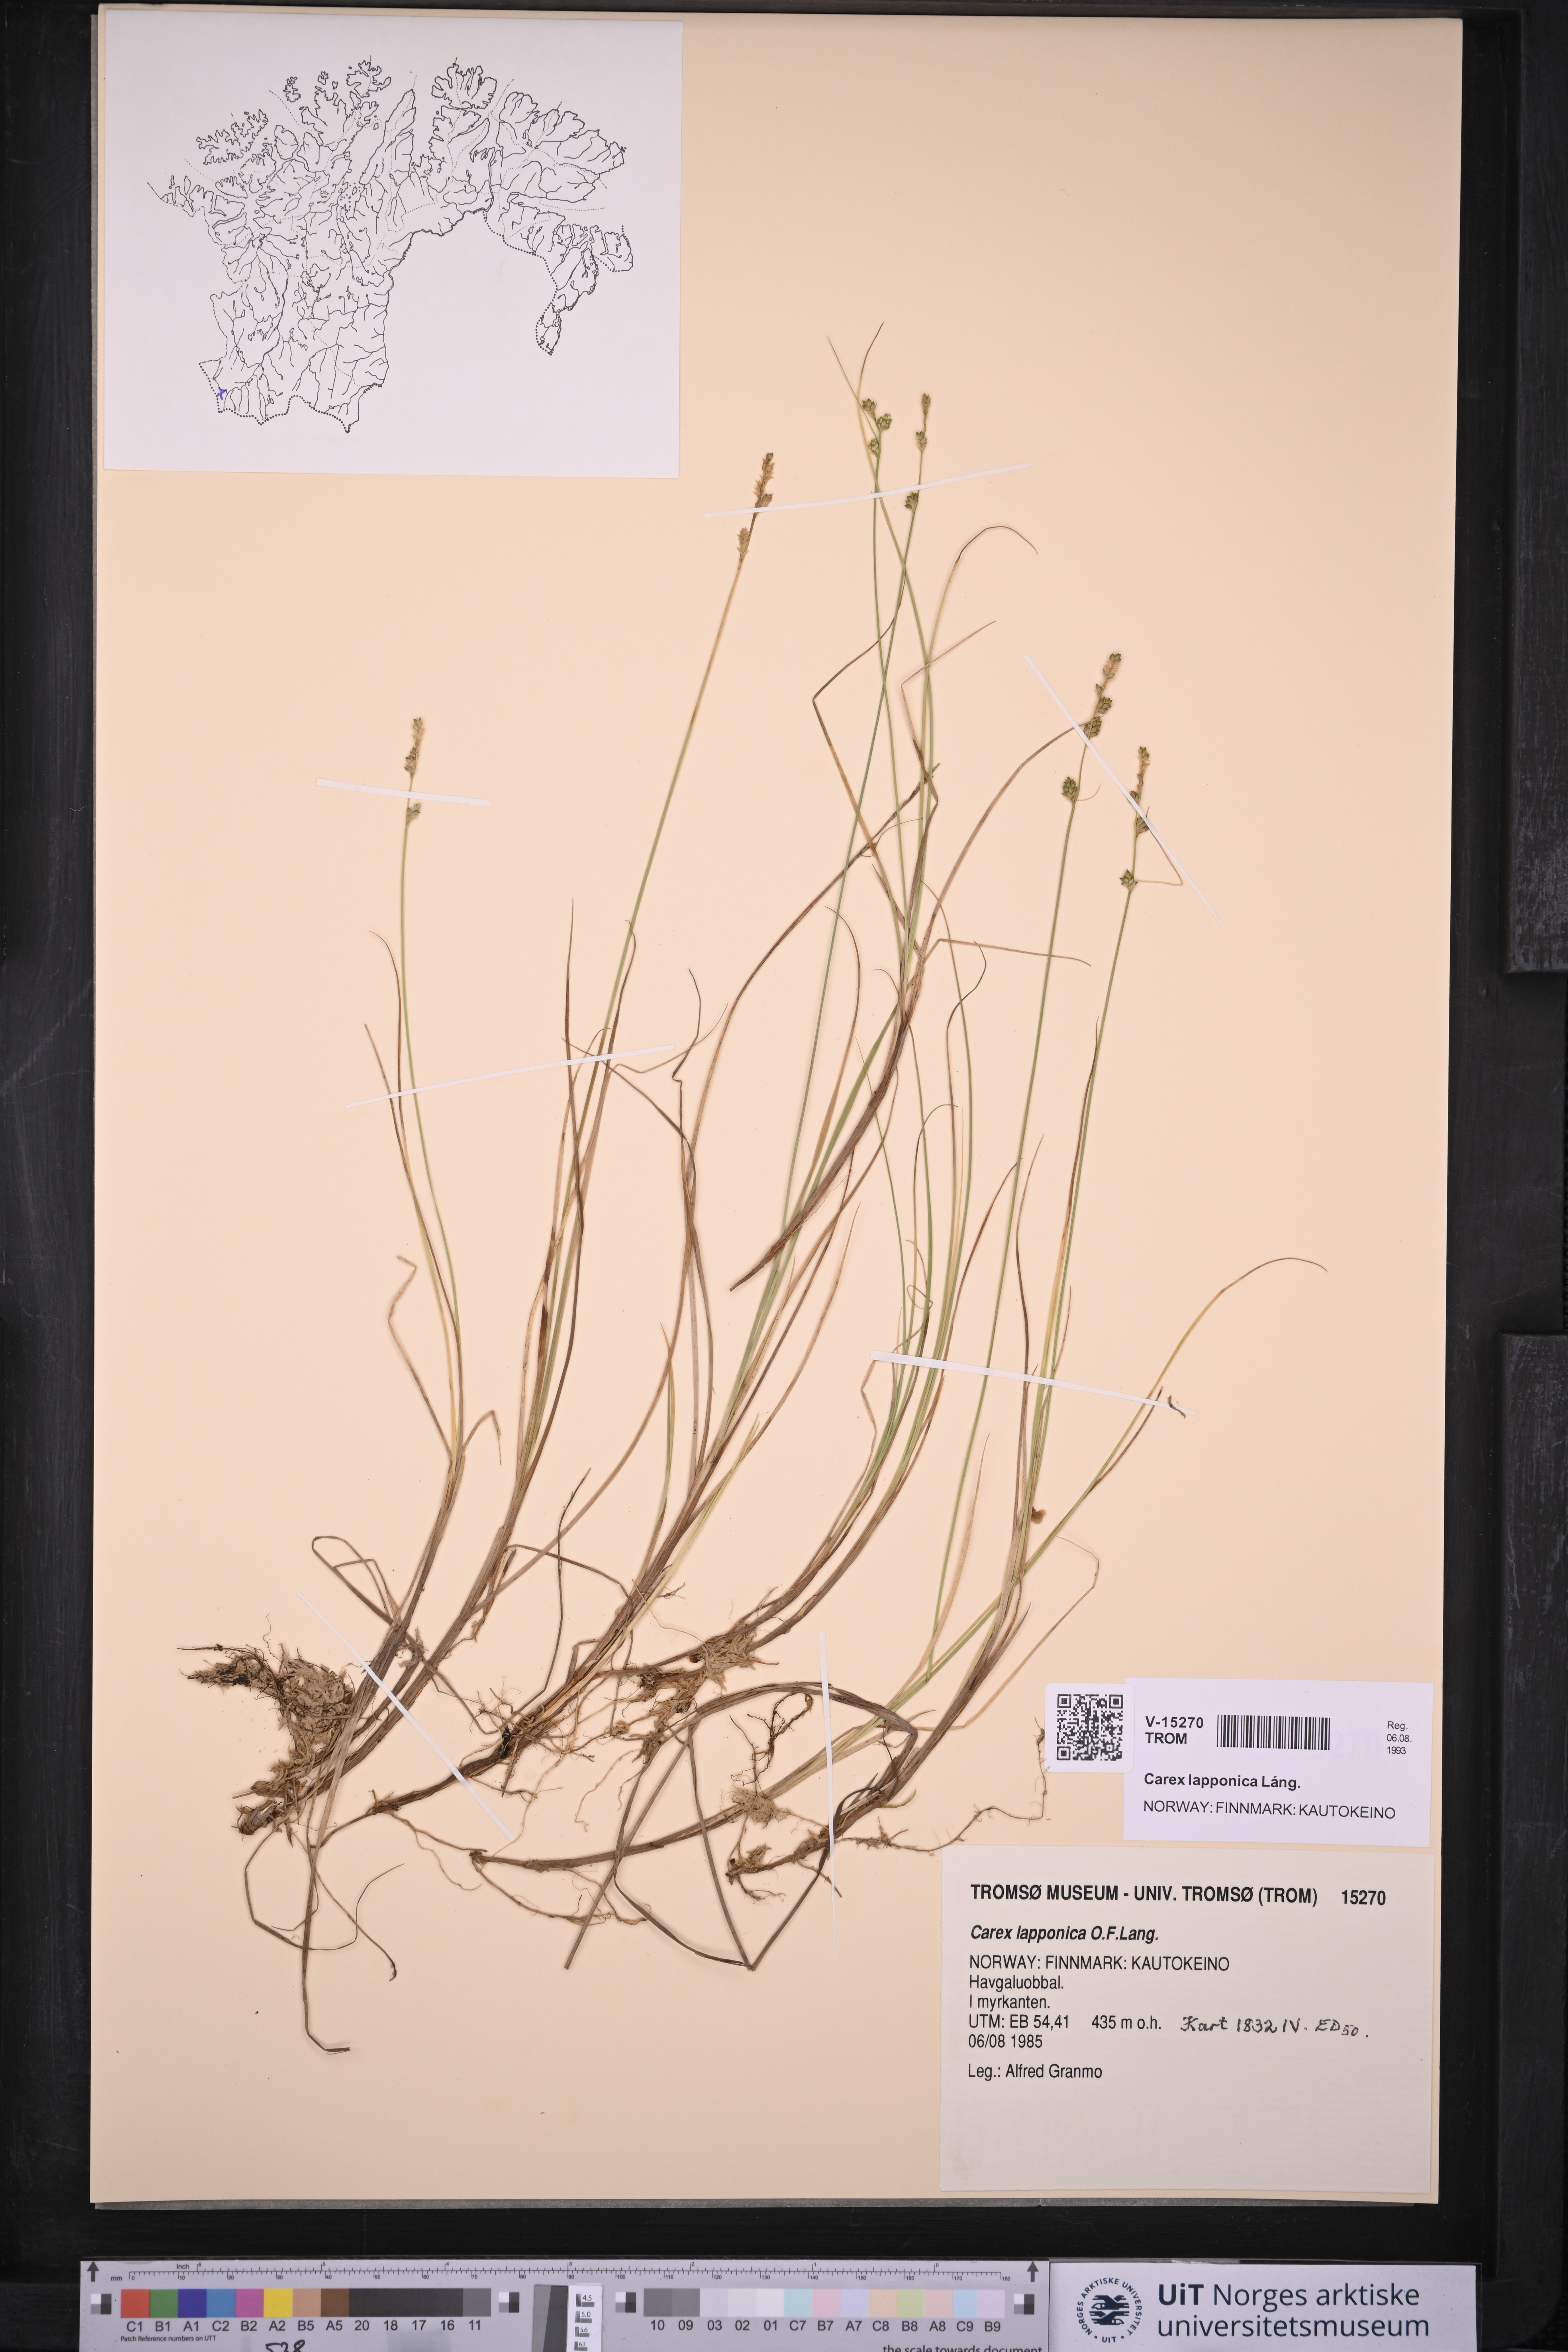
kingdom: Plantae
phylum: Tracheophyta
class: Liliopsida
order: Poales
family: Cyperaceae
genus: Carex
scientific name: Carex lapponica
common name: Lapland sedge
